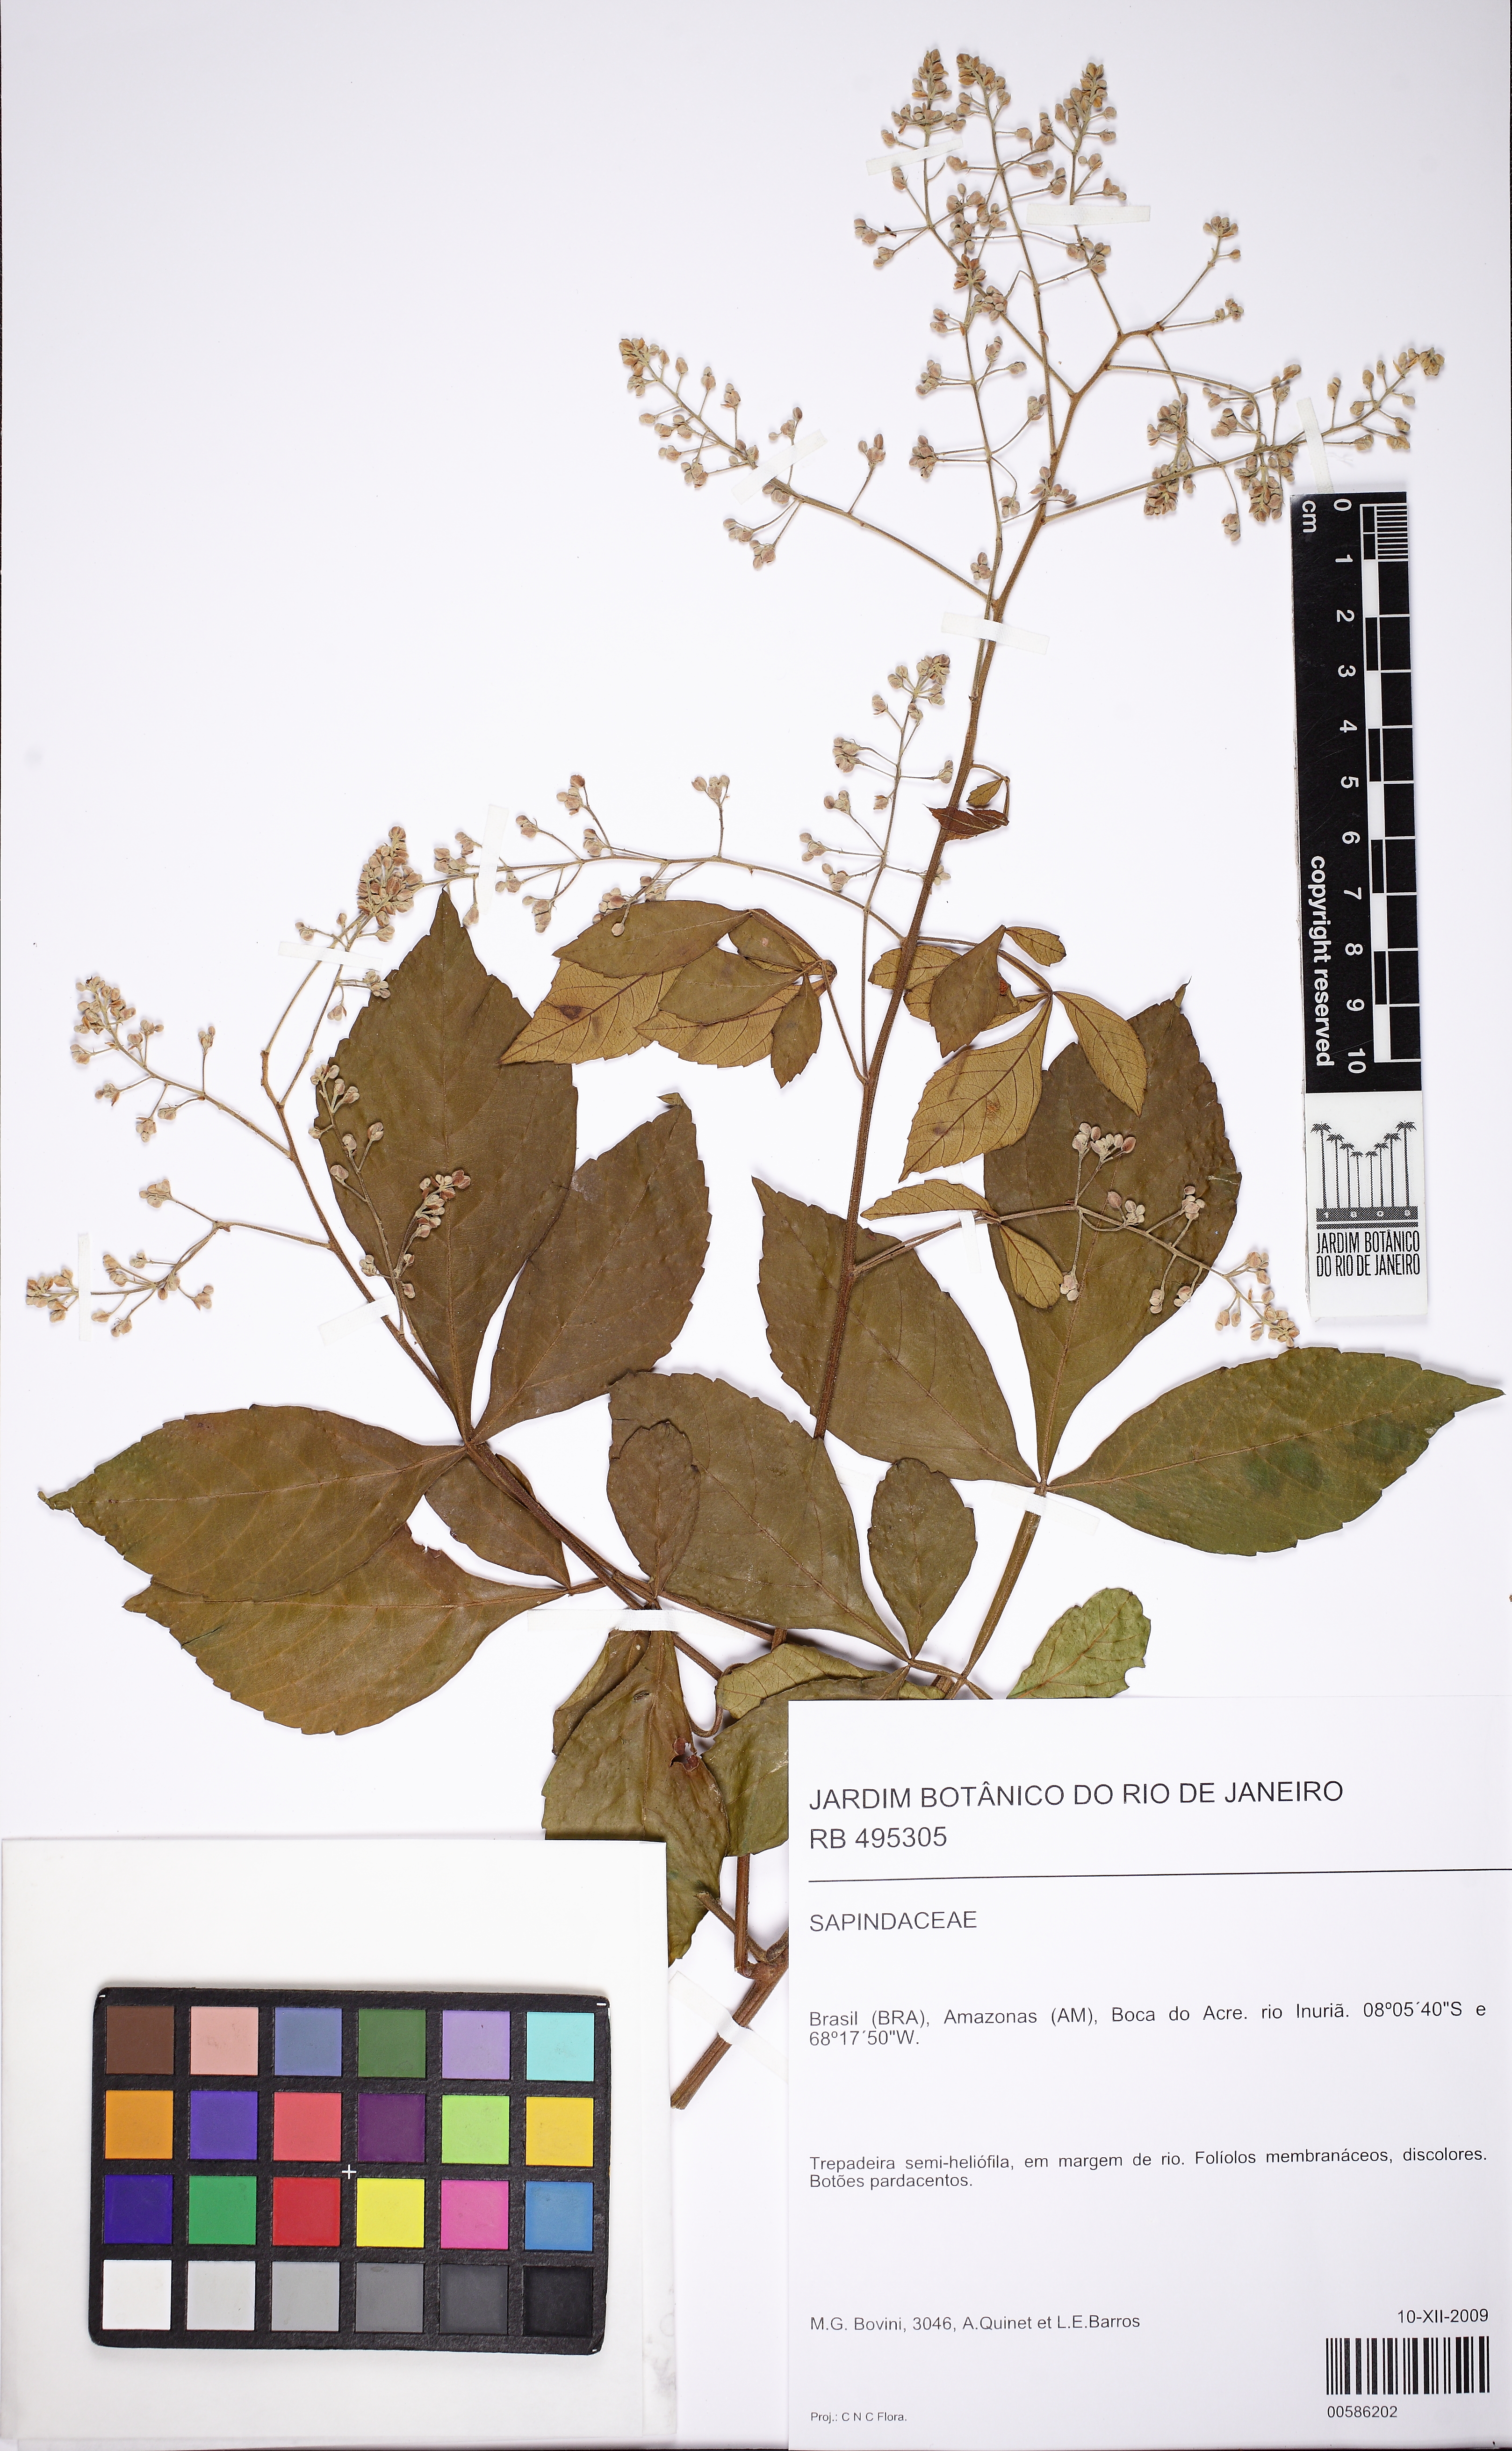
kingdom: Plantae
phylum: Tracheophyta
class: Magnoliopsida
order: Sapindales
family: Sapindaceae
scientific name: Sapindaceae
